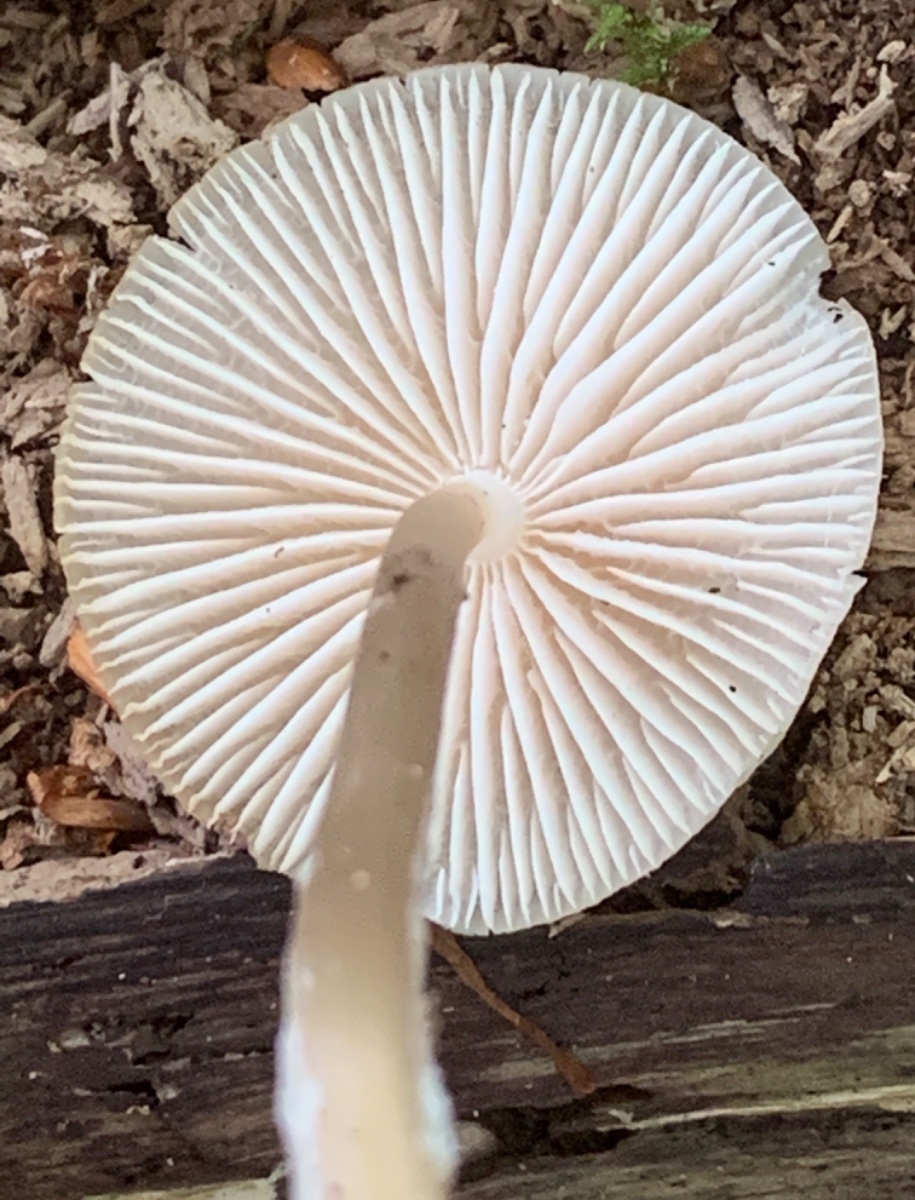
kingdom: Fungi
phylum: Basidiomycota
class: Agaricomycetes
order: Agaricales
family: Mycenaceae
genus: Mycena
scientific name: Mycena galericulata
